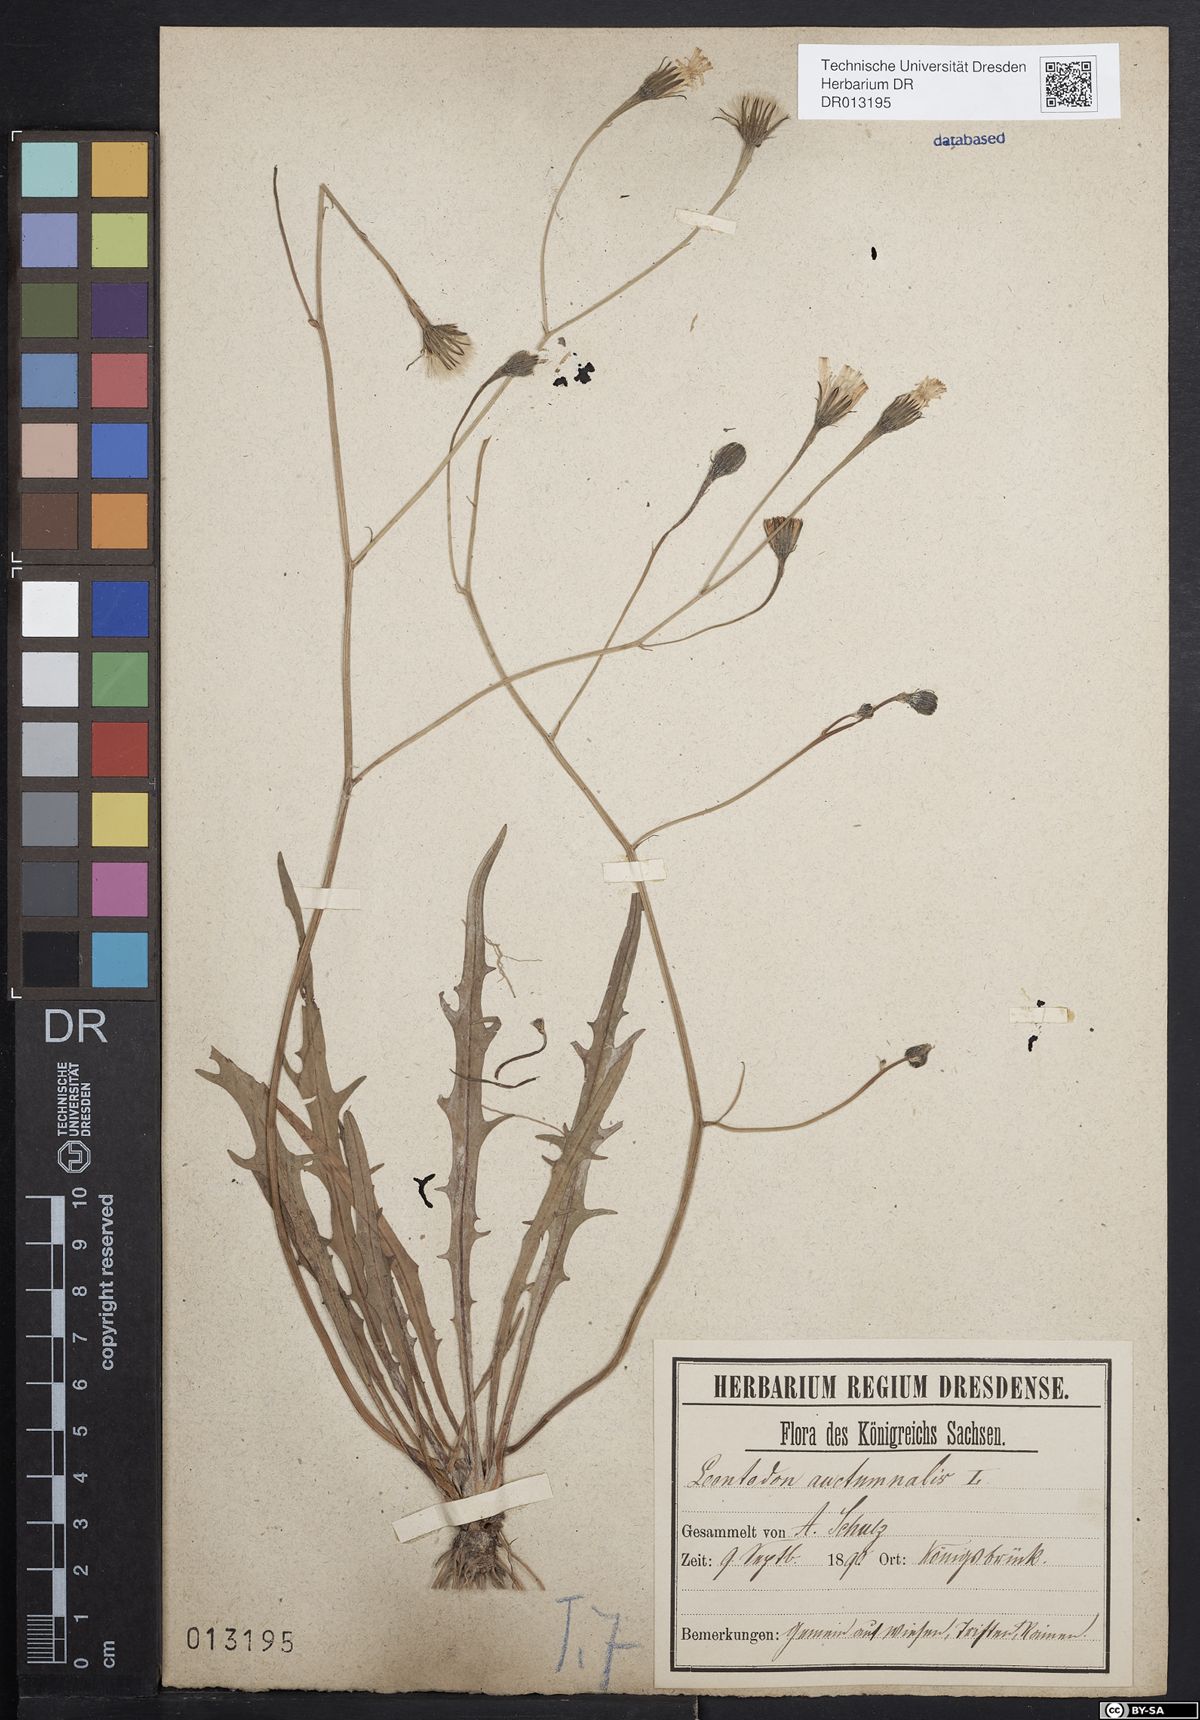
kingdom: Plantae
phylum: Tracheophyta
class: Magnoliopsida
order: Asterales
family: Asteraceae
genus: Scorzoneroides
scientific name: Scorzoneroides autumnalis
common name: Autumn hawkbit
